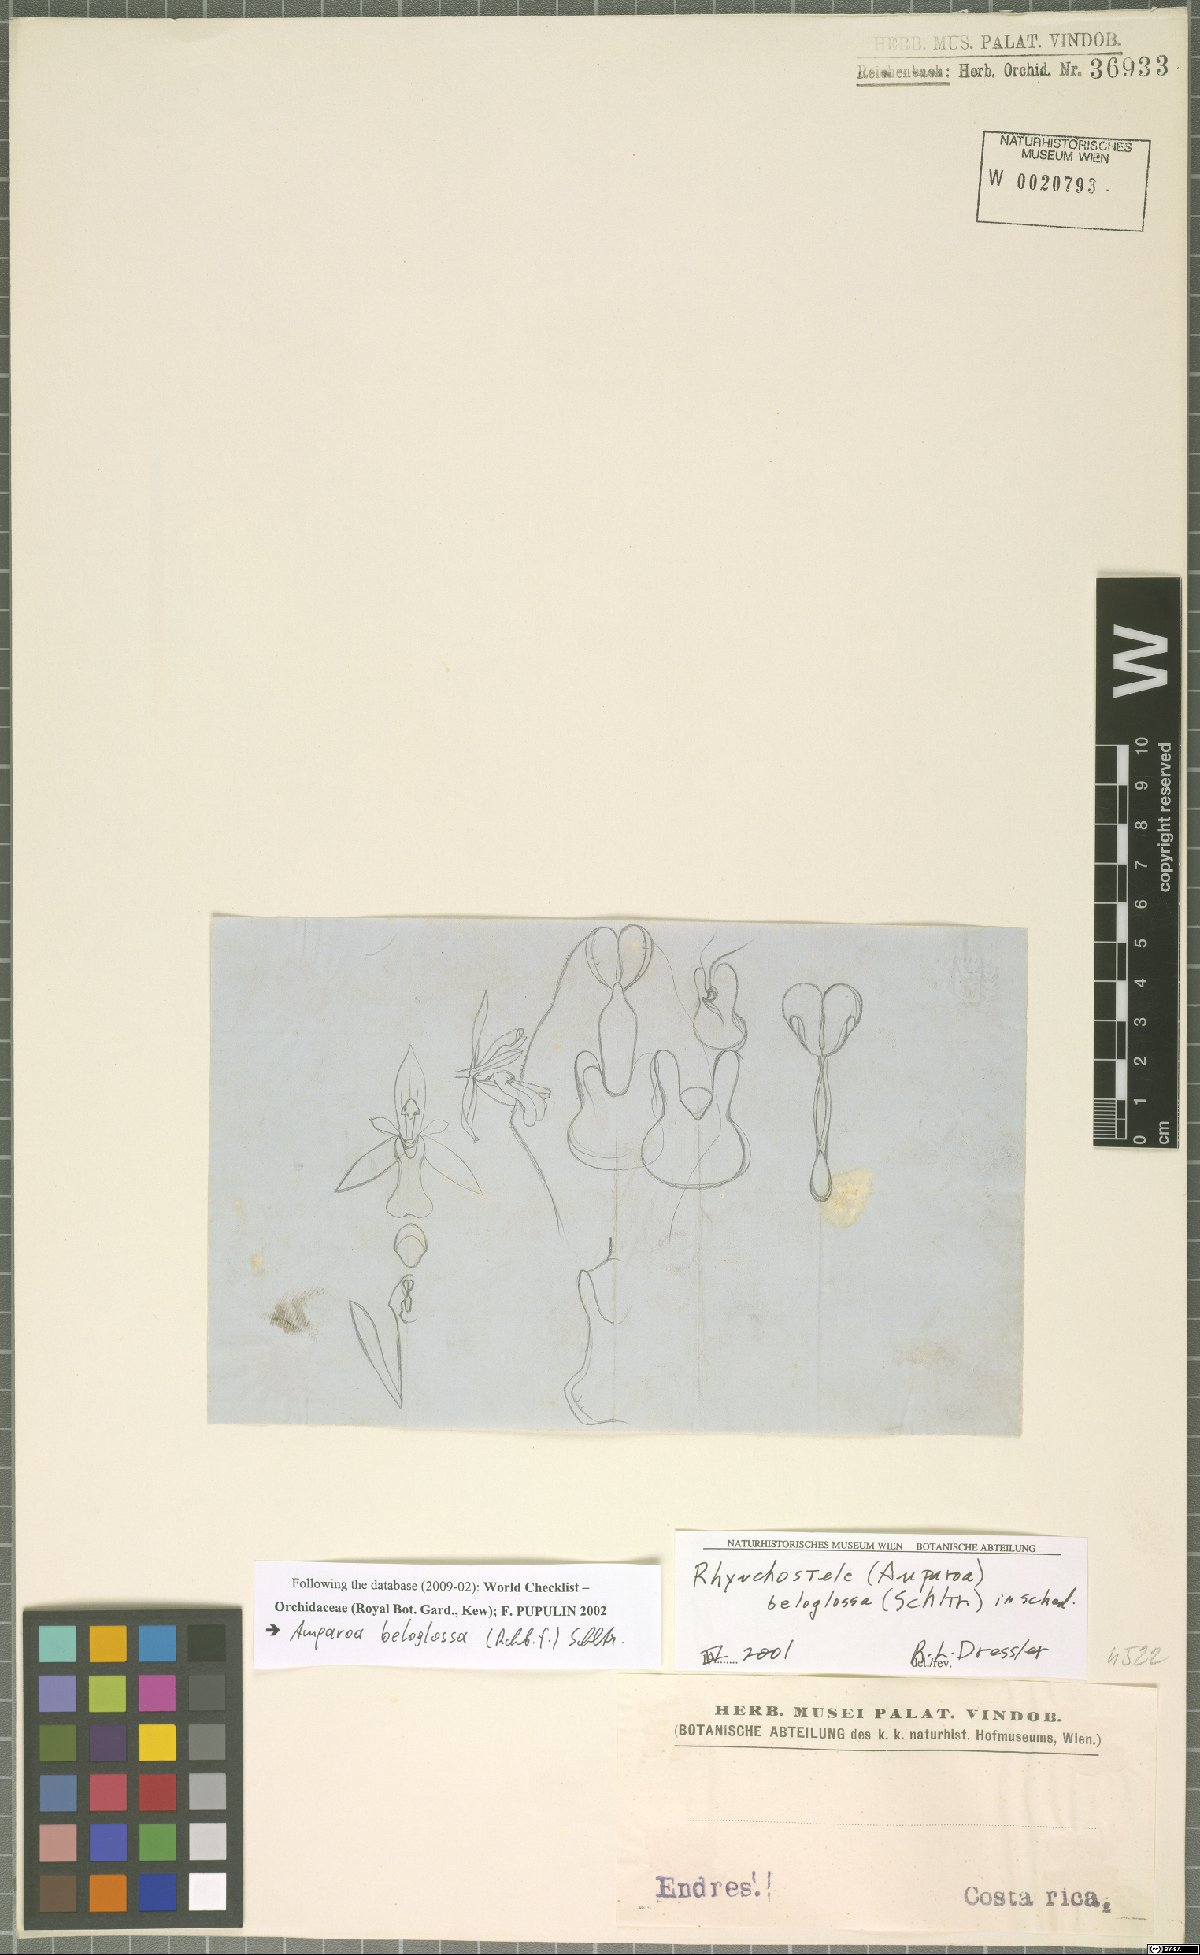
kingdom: Plantae
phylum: Tracheophyta
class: Liliopsida
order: Asparagales
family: Orchidaceae
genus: Rossioglossum
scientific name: Rossioglossum beloglossum
